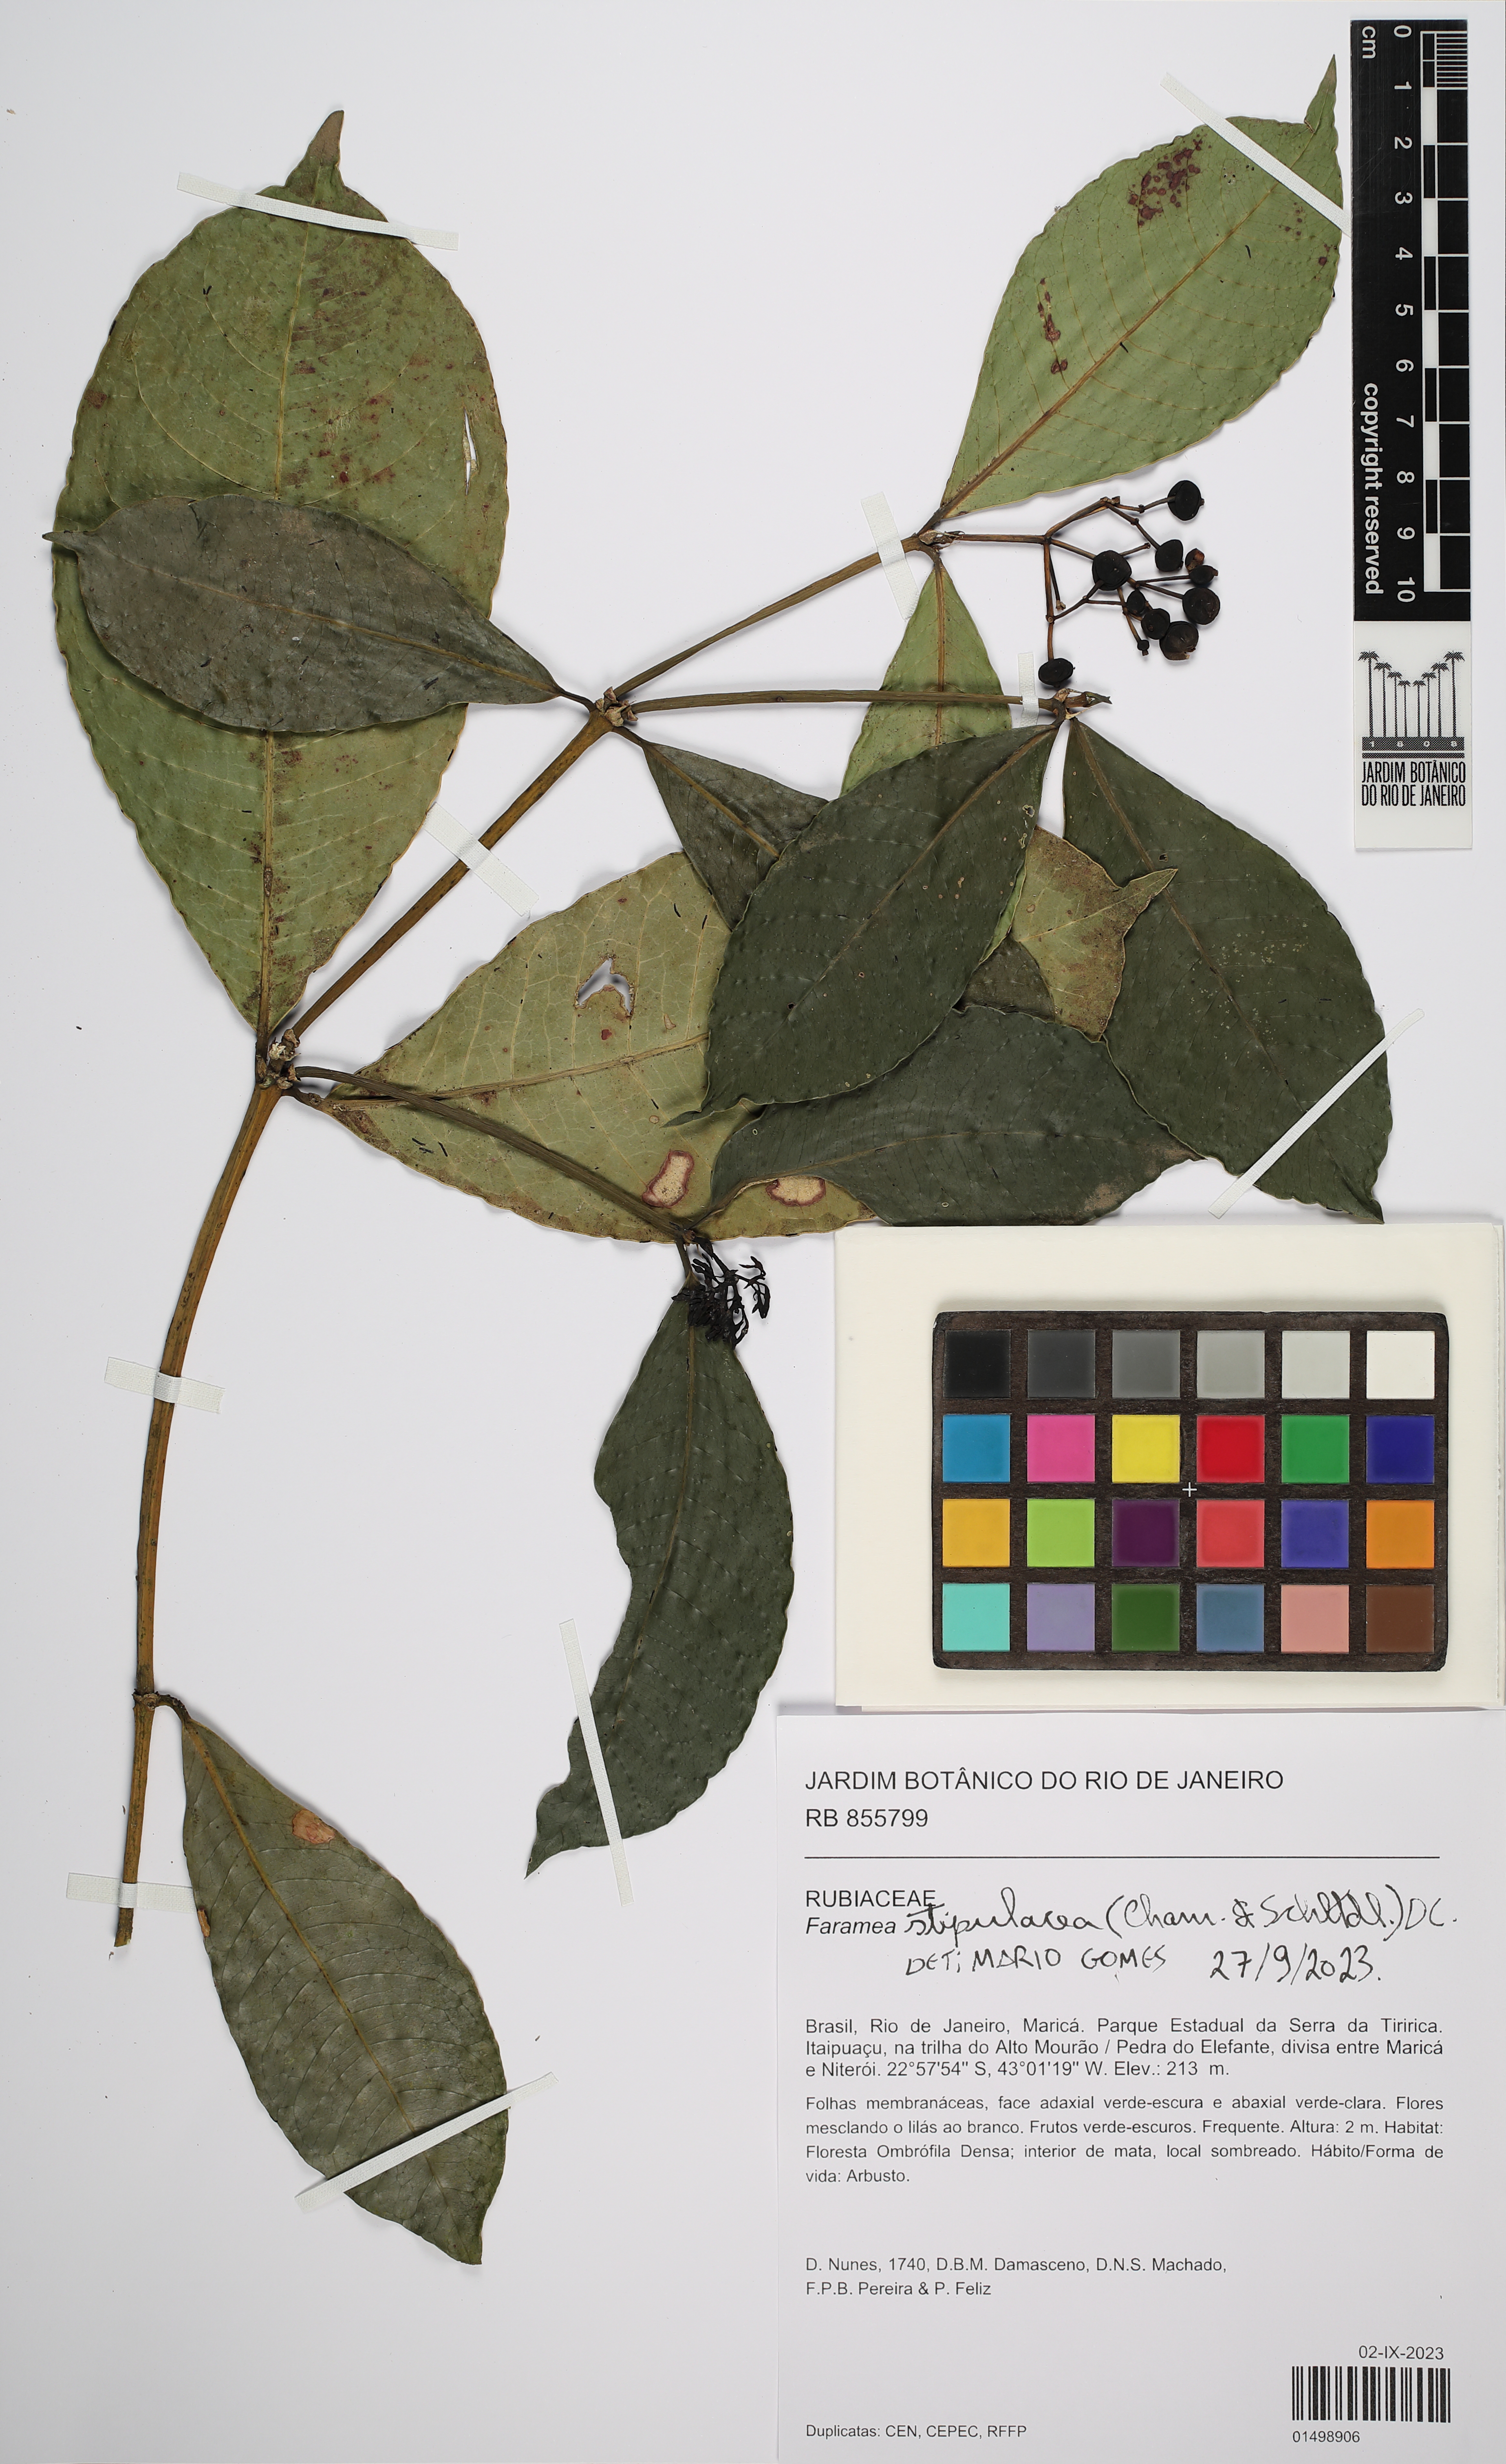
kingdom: Plantae
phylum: Tracheophyta
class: Magnoliopsida
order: Gentianales
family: Rubiaceae
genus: Faramea
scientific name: Faramea stipulacea
